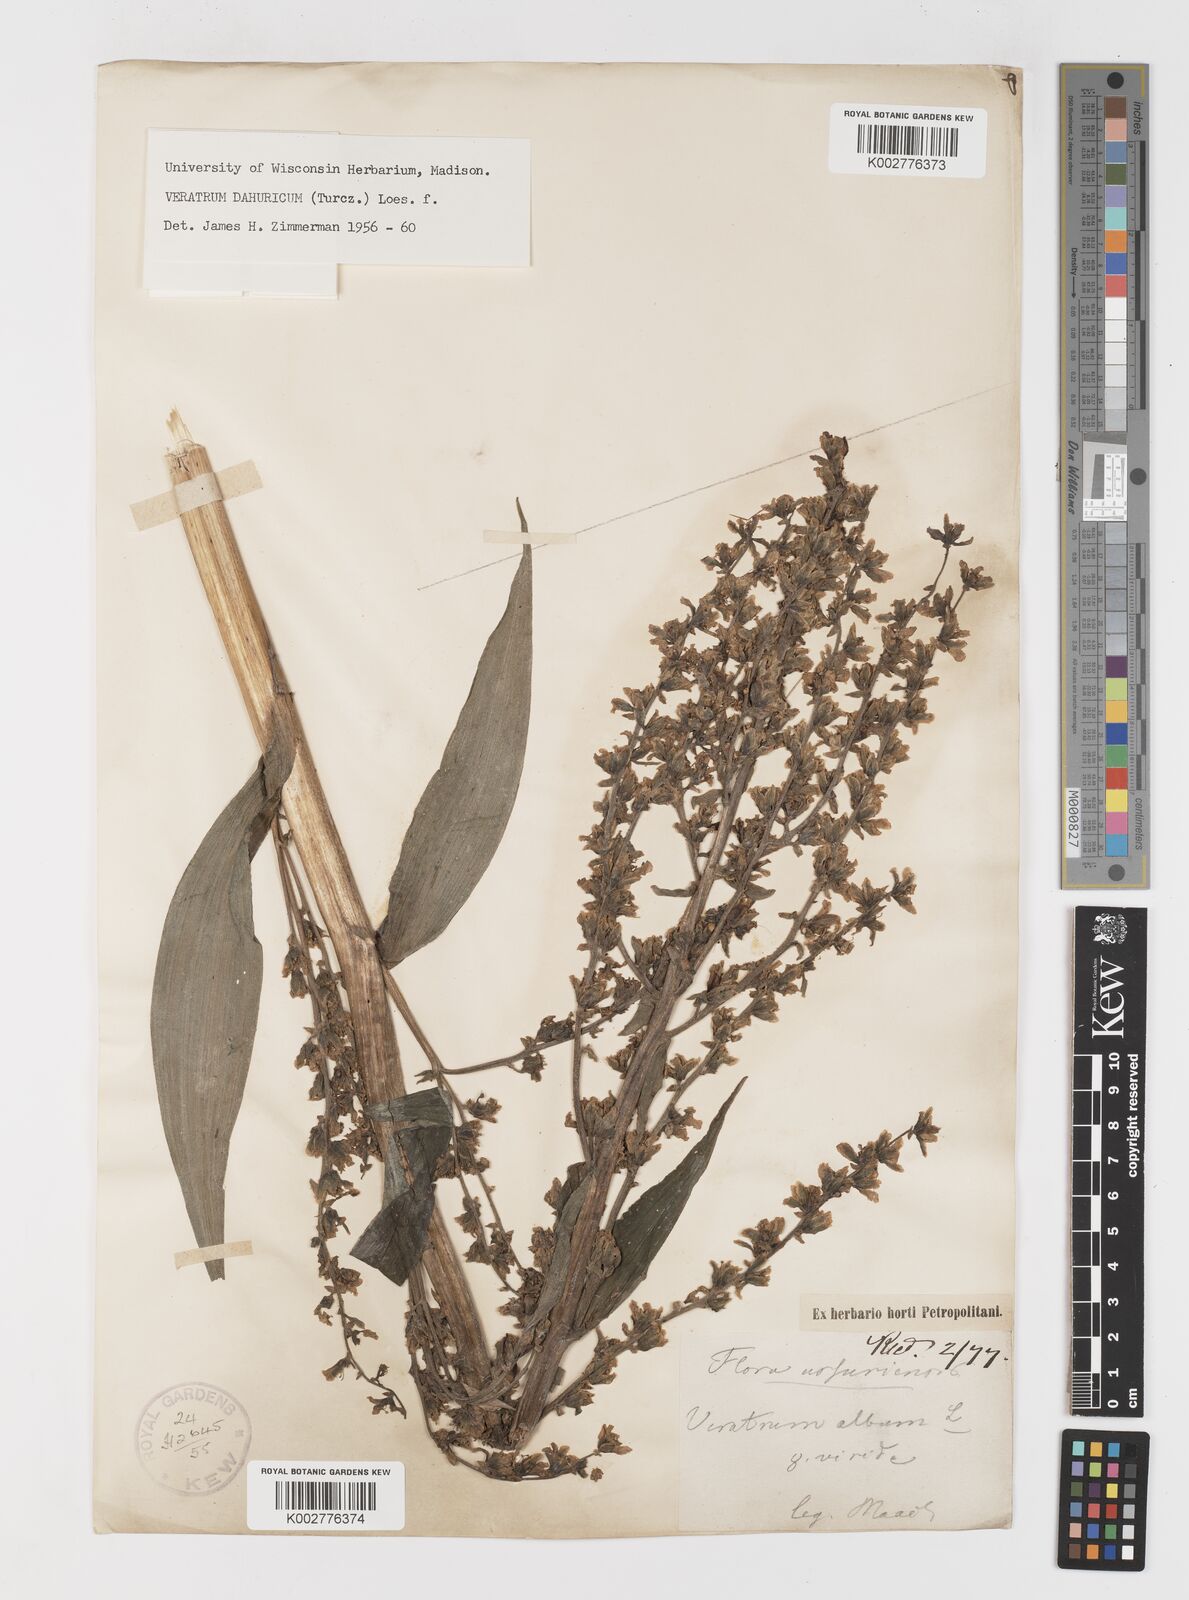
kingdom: Plantae
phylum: Tracheophyta
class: Liliopsida
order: Liliales
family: Melanthiaceae
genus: Veratrum
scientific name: Veratrum album
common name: White veratrum
